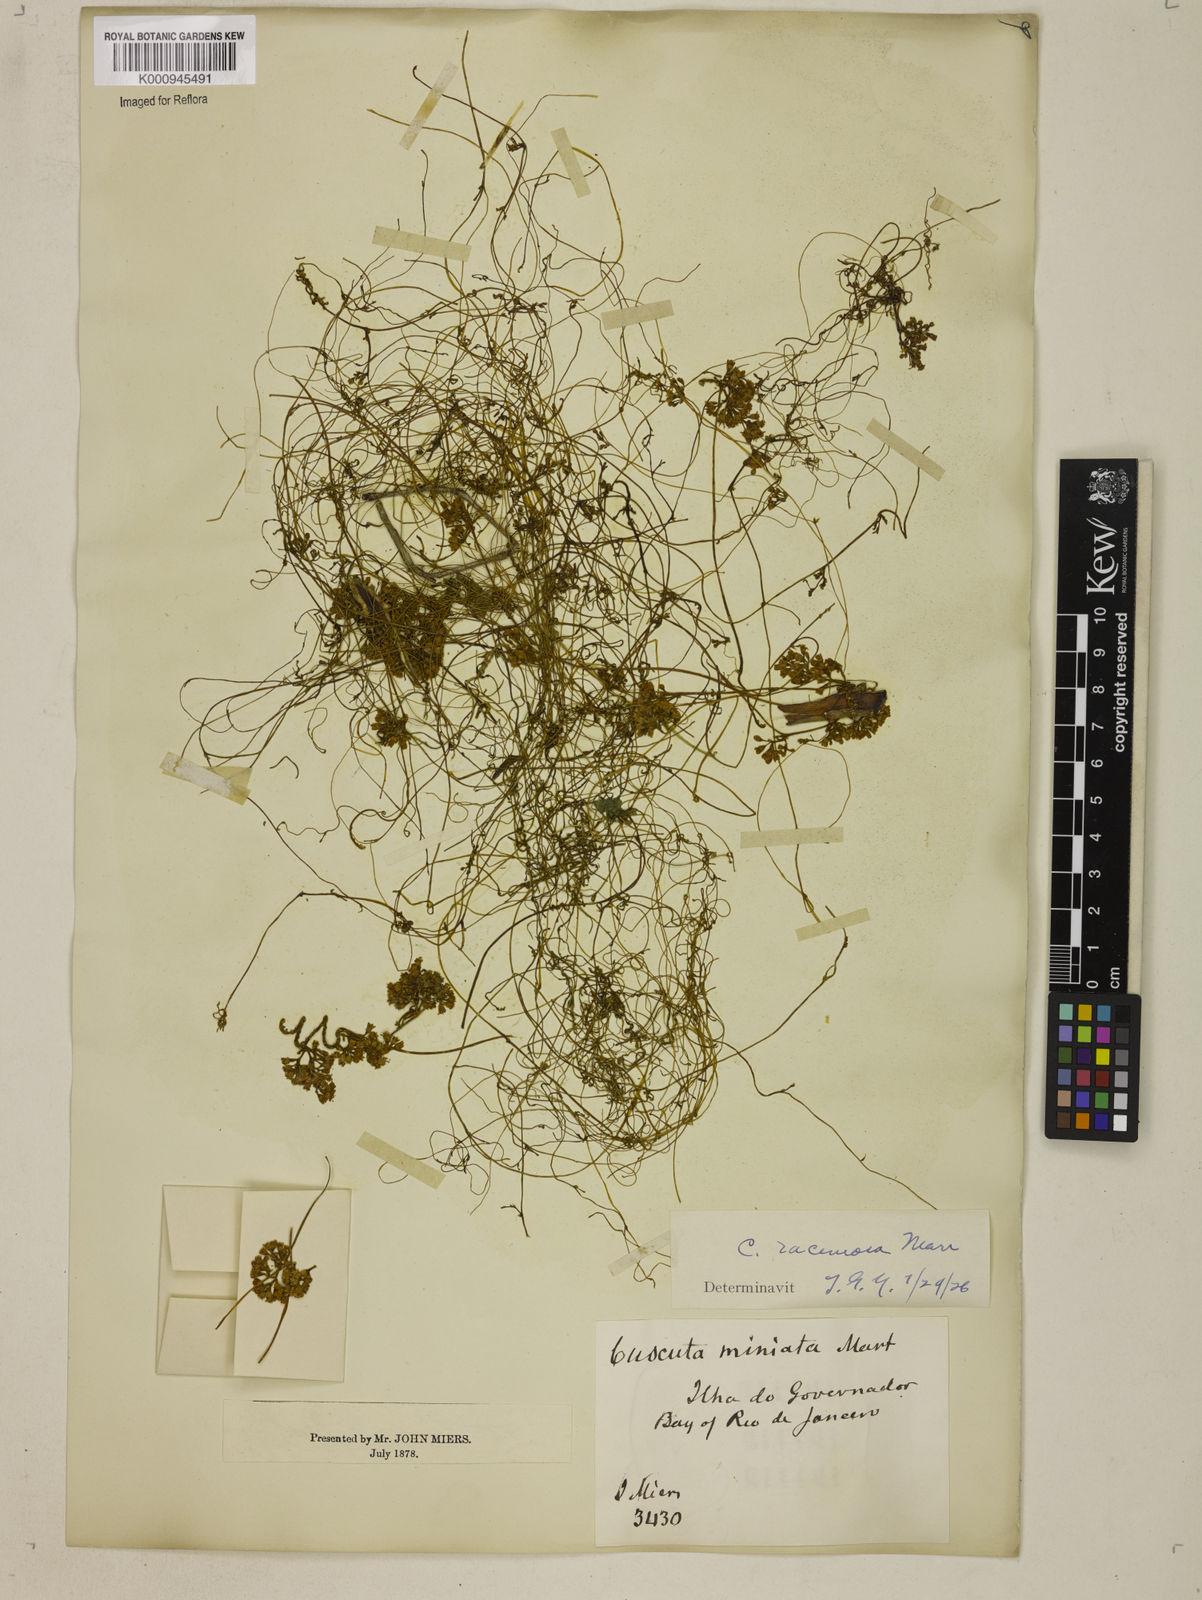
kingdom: Plantae
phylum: Tracheophyta
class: Magnoliopsida
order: Solanales
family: Convolvulaceae
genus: Cuscuta
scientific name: Cuscuta racemosa
